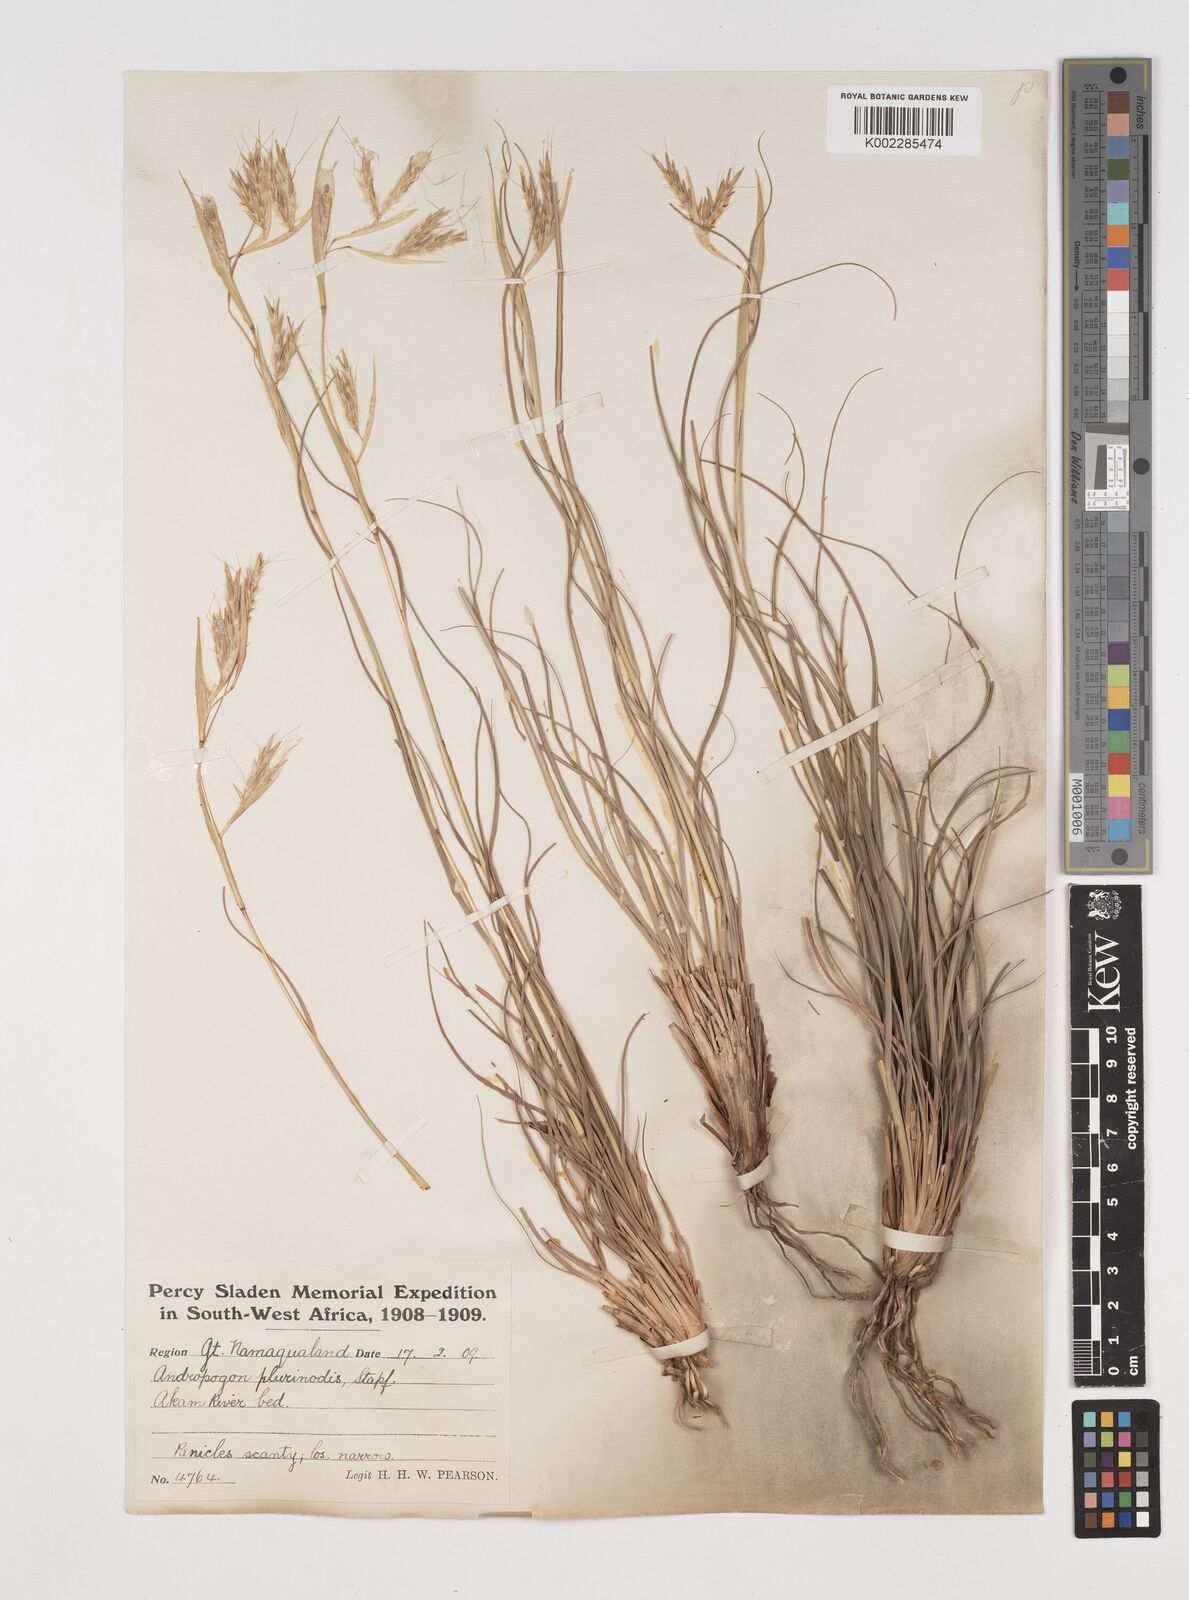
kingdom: Plantae
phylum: Tracheophyta
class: Liliopsida
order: Poales
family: Poaceae
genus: Cymbopogon
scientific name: Cymbopogon pospischilii
